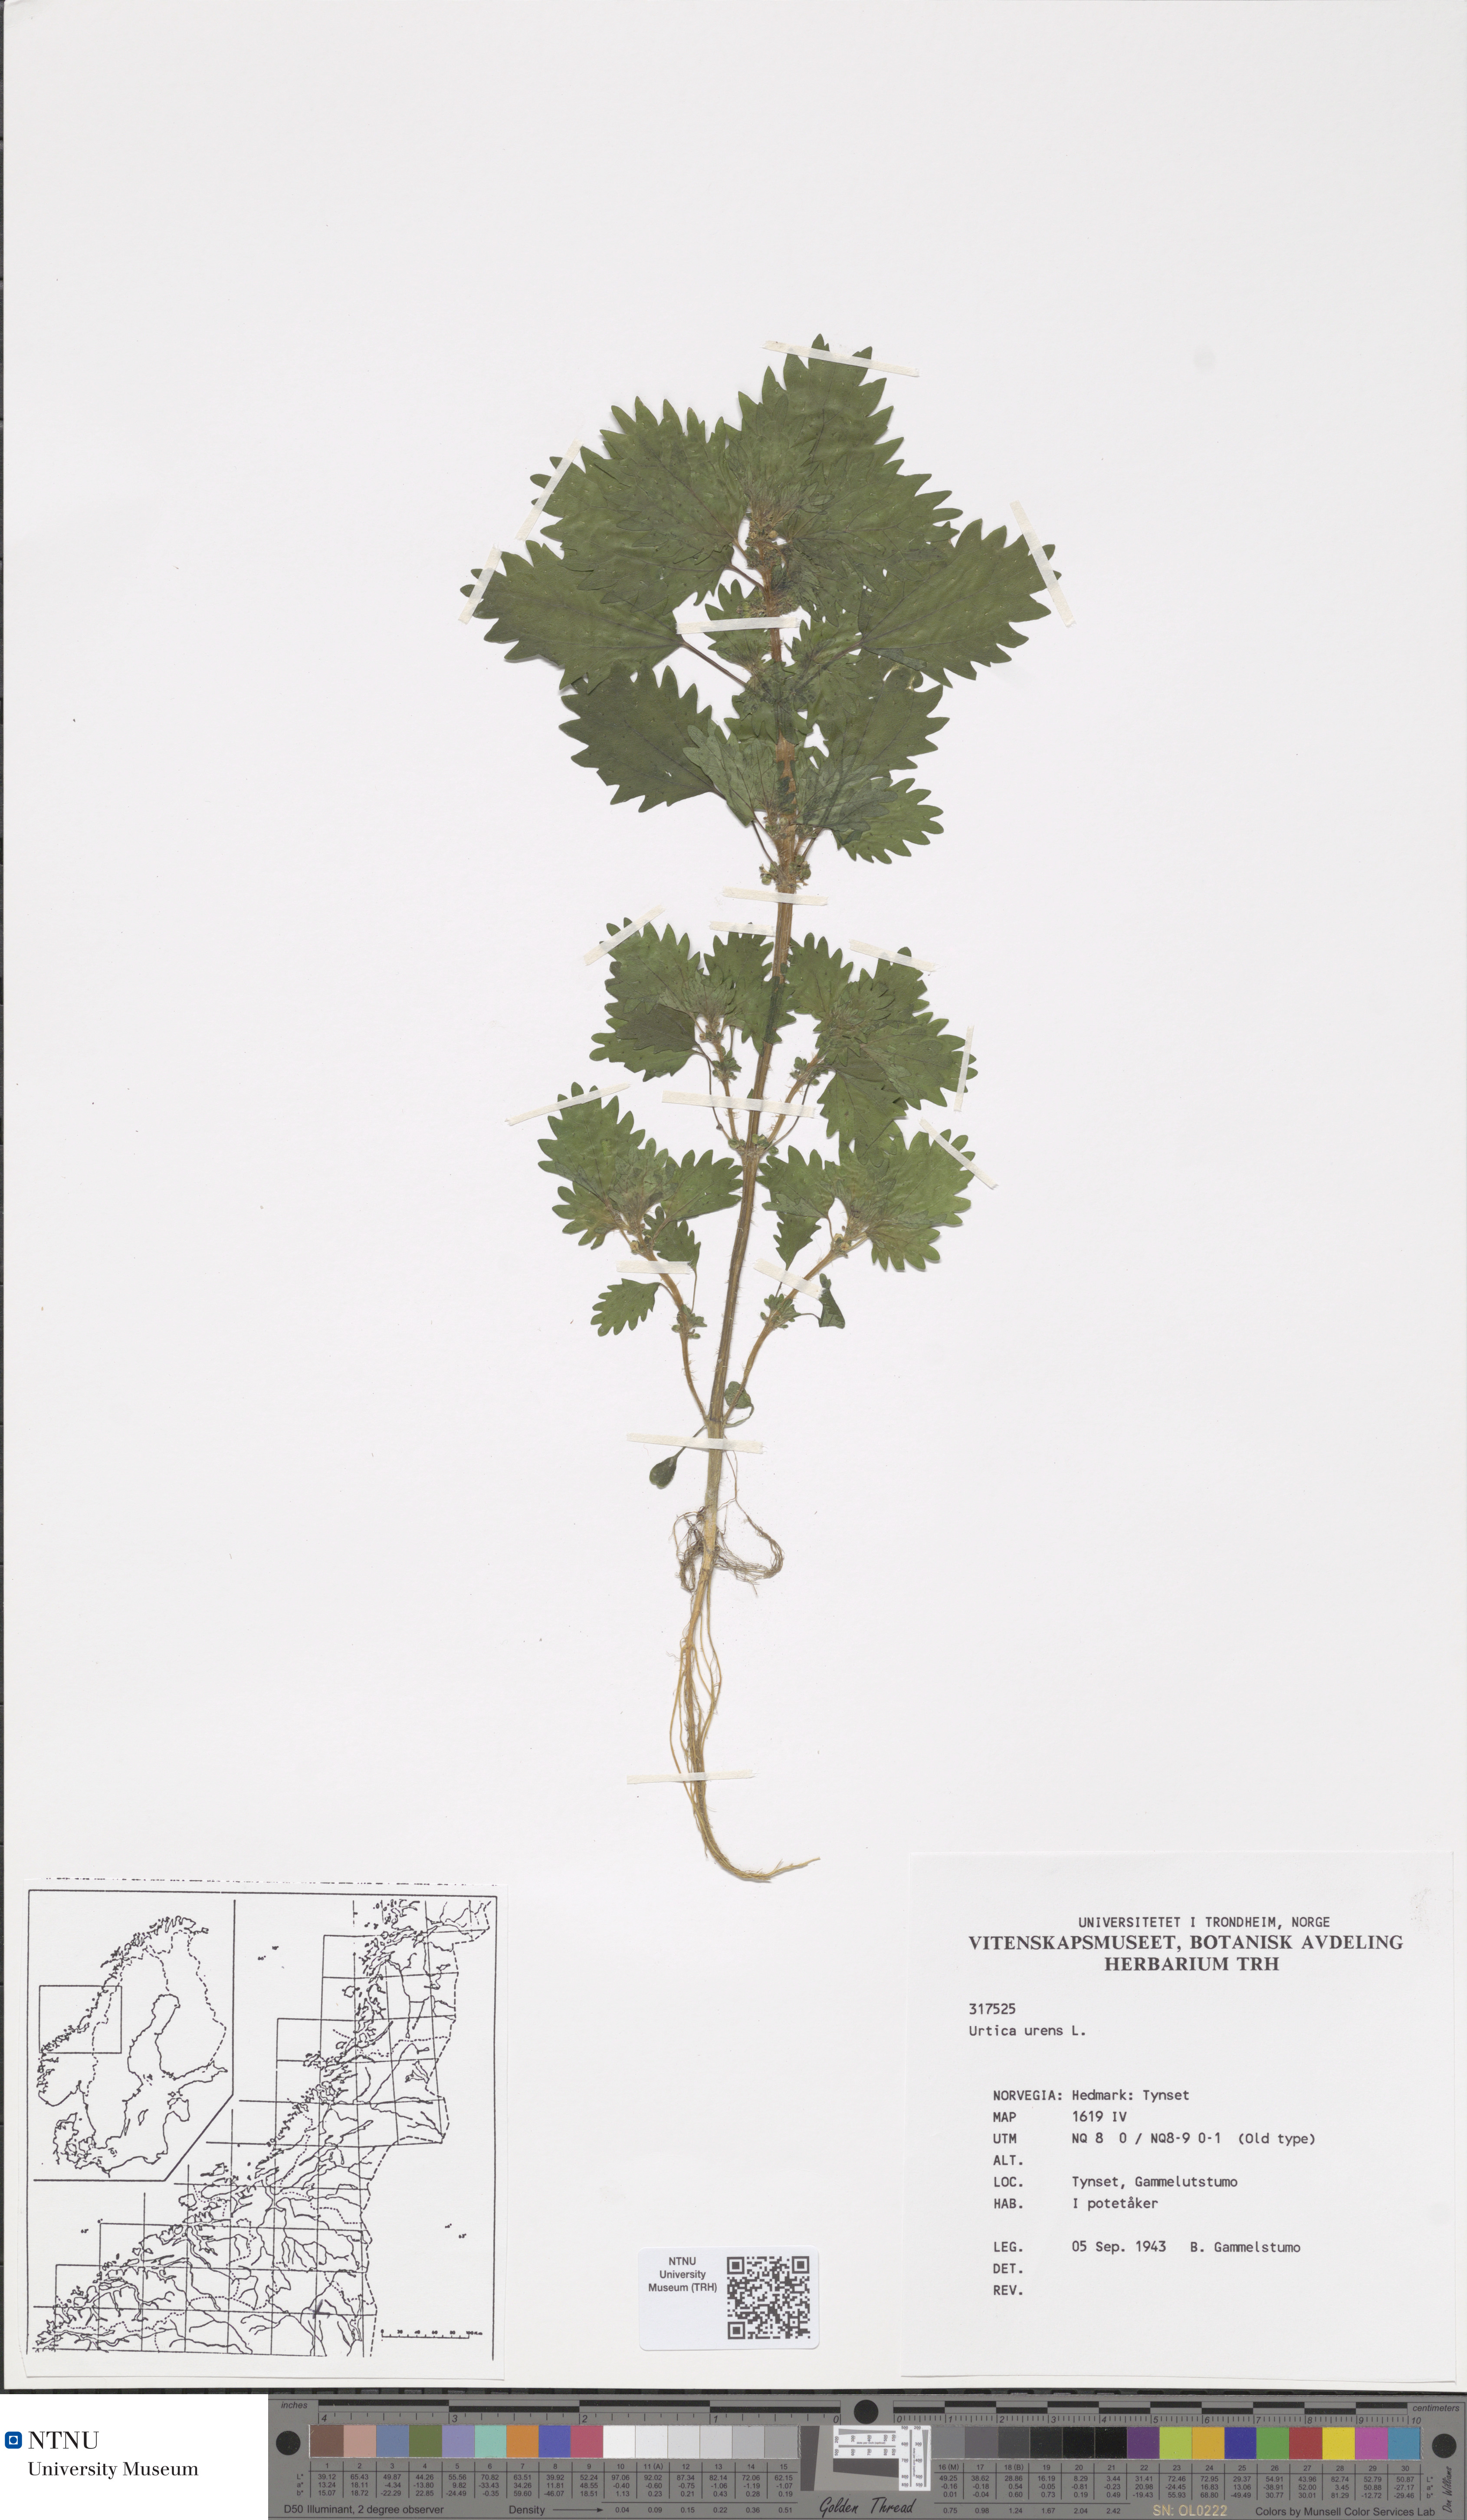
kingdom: Plantae
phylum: Tracheophyta
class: Magnoliopsida
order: Rosales
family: Urticaceae
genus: Urtica
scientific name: Urtica urens
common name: Dwarf nettle
